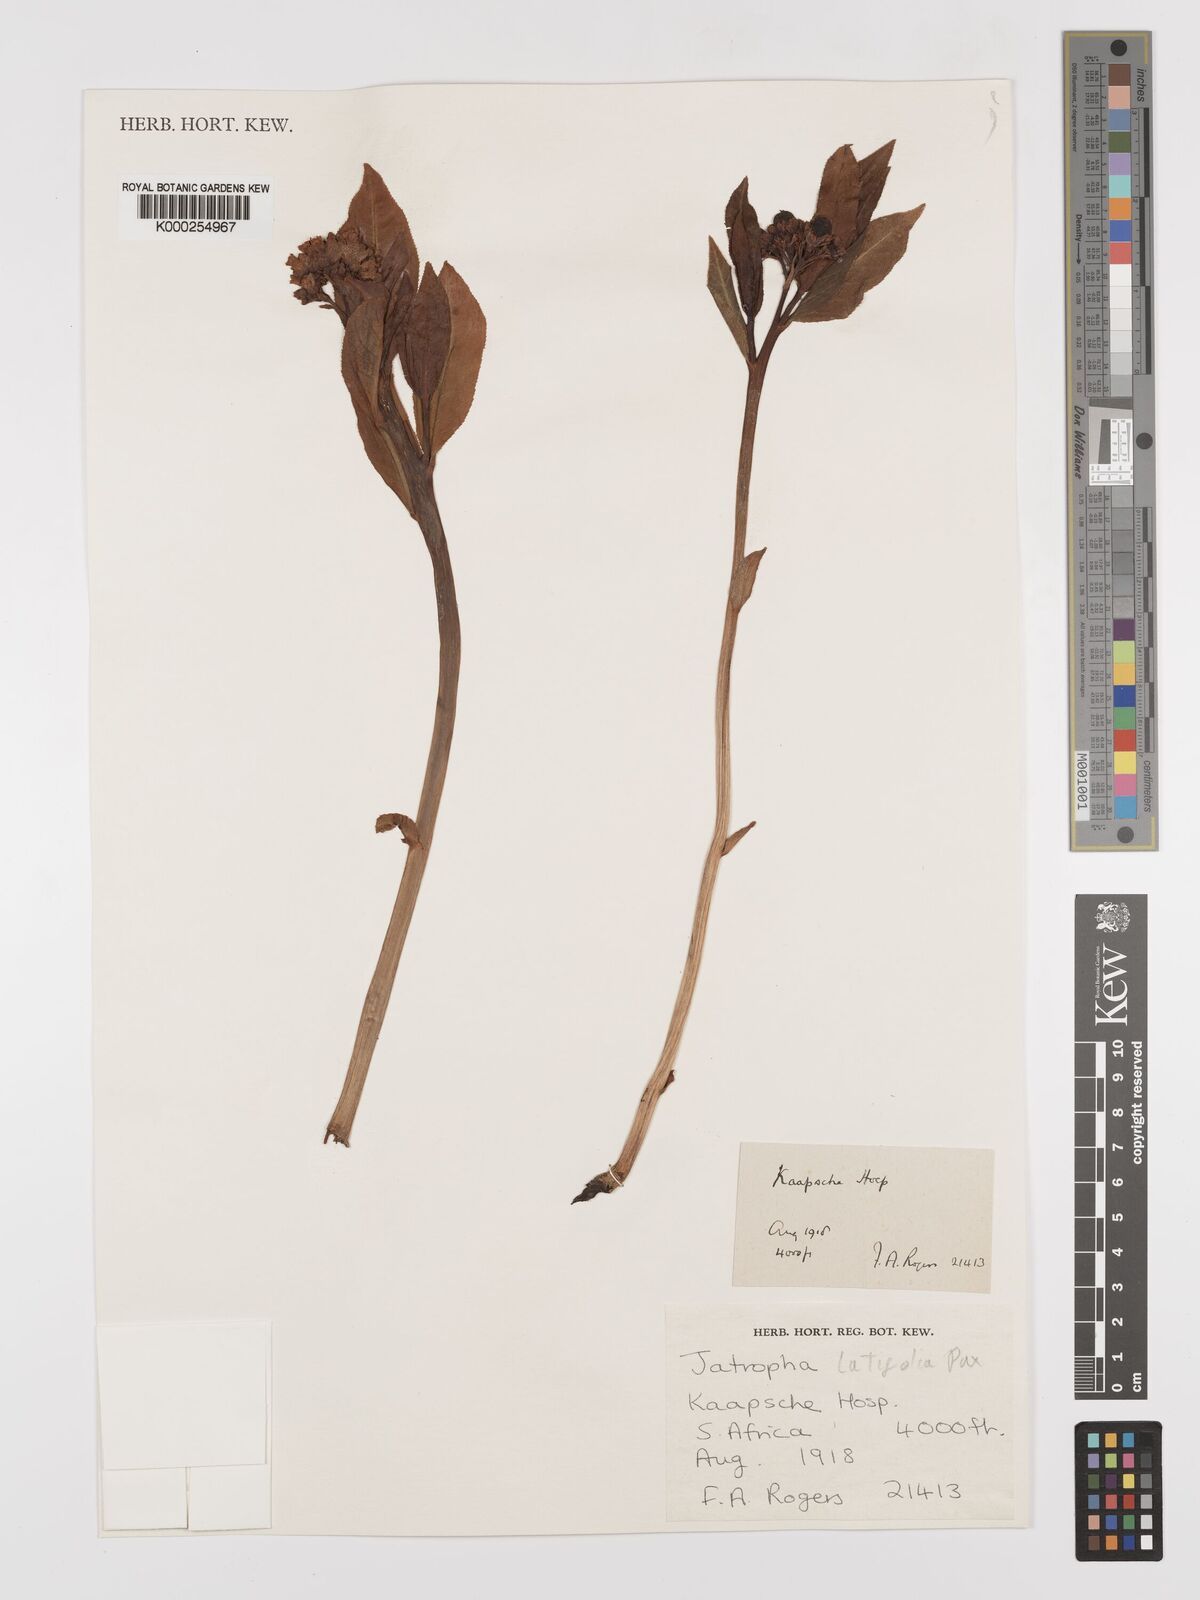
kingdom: Plantae
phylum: Tracheophyta
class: Magnoliopsida
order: Malpighiales
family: Euphorbiaceae
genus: Jatropha
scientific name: Jatropha latifolia
